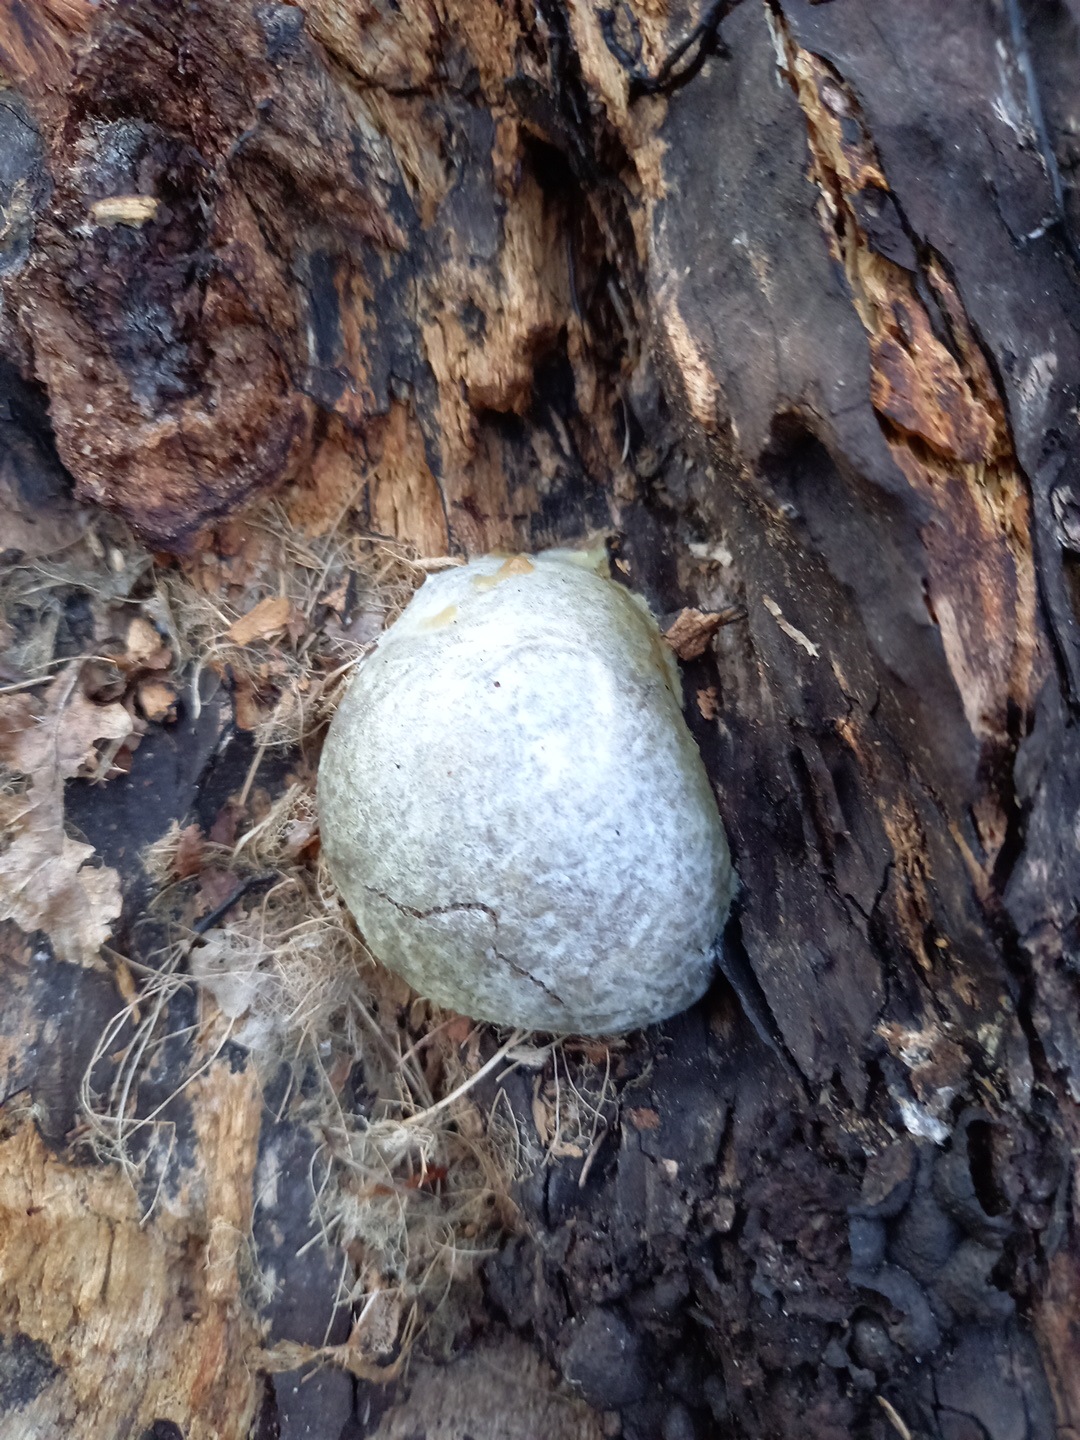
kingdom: Protozoa
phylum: Mycetozoa
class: Myxomycetes
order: Cribrariales
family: Tubiferaceae
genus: Reticularia
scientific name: Reticularia lycoperdon
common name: skinnende støvpude
